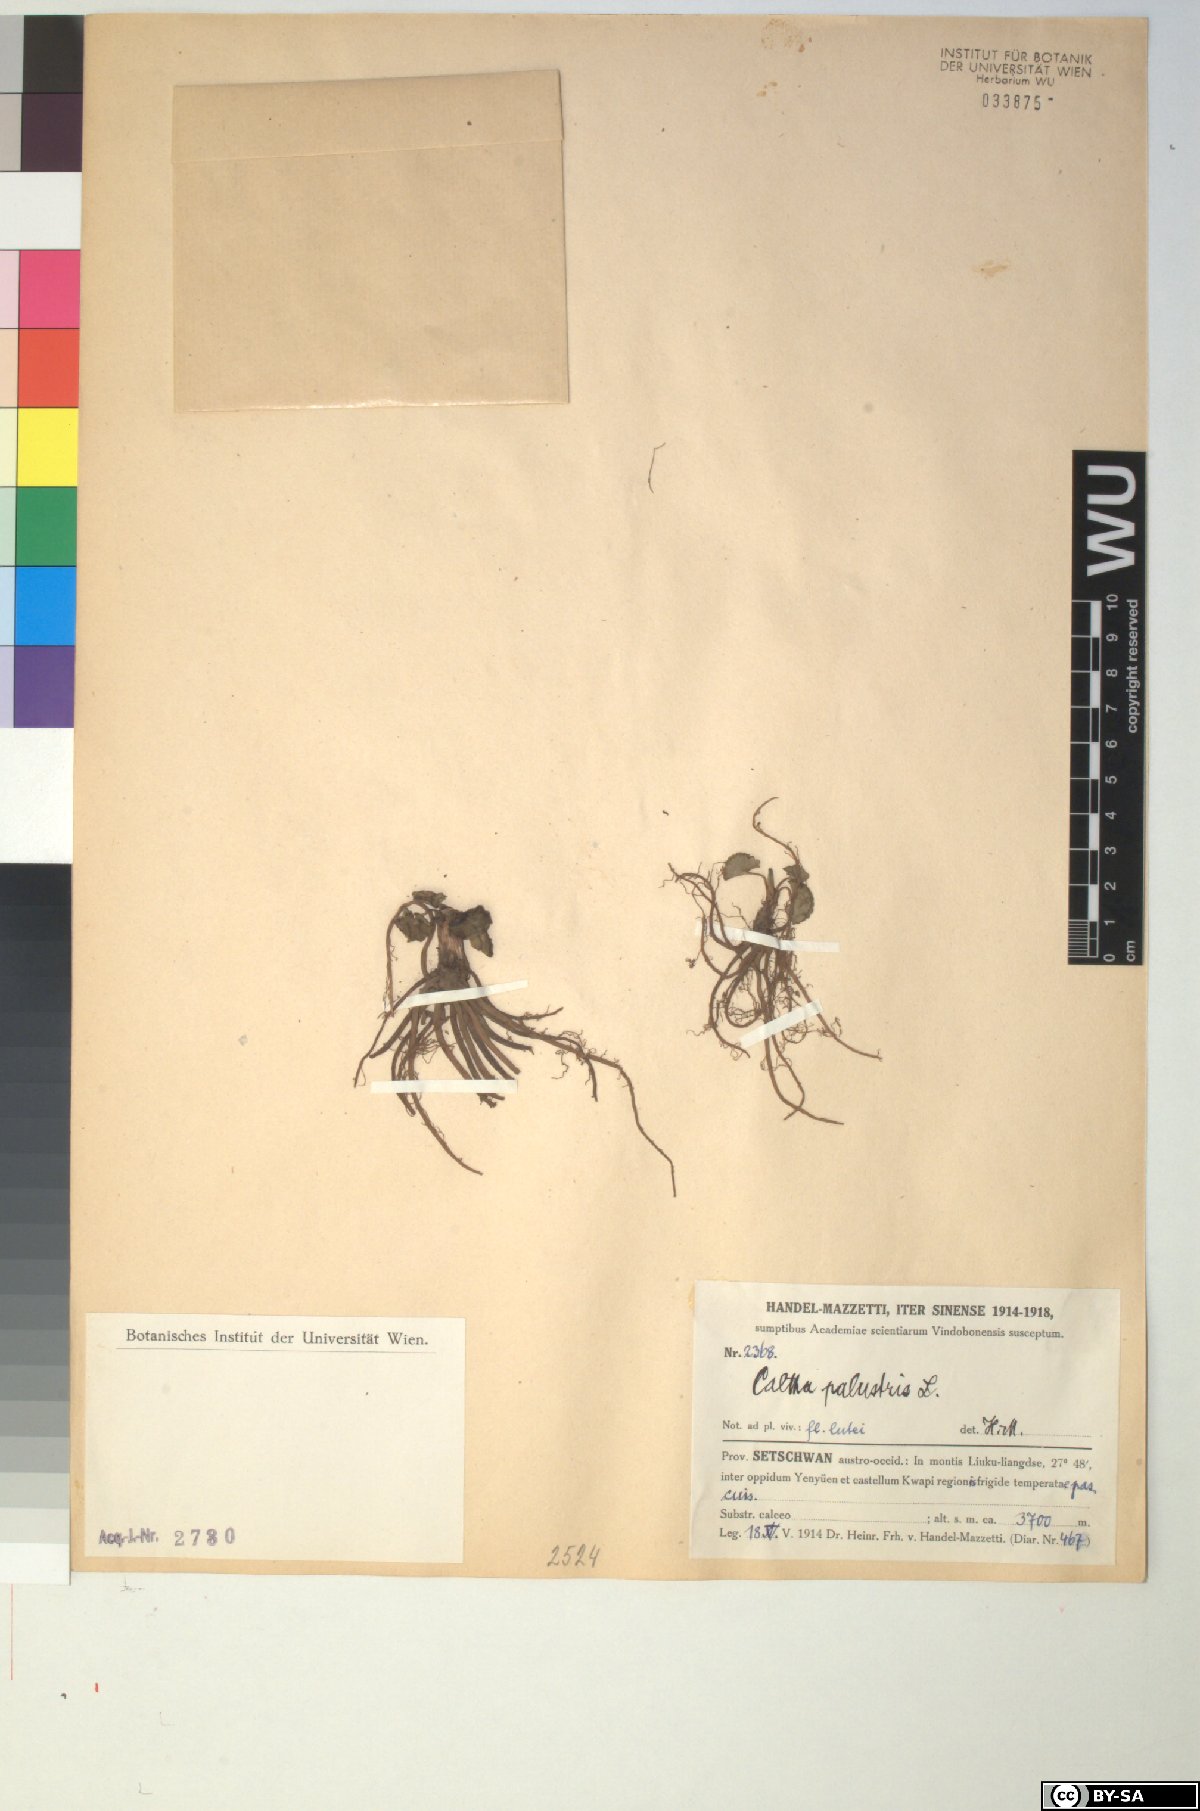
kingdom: Plantae
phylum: Tracheophyta
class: Magnoliopsida
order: Ranunculales
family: Ranunculaceae
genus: Caltha
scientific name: Caltha palustris
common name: Marsh marigold
